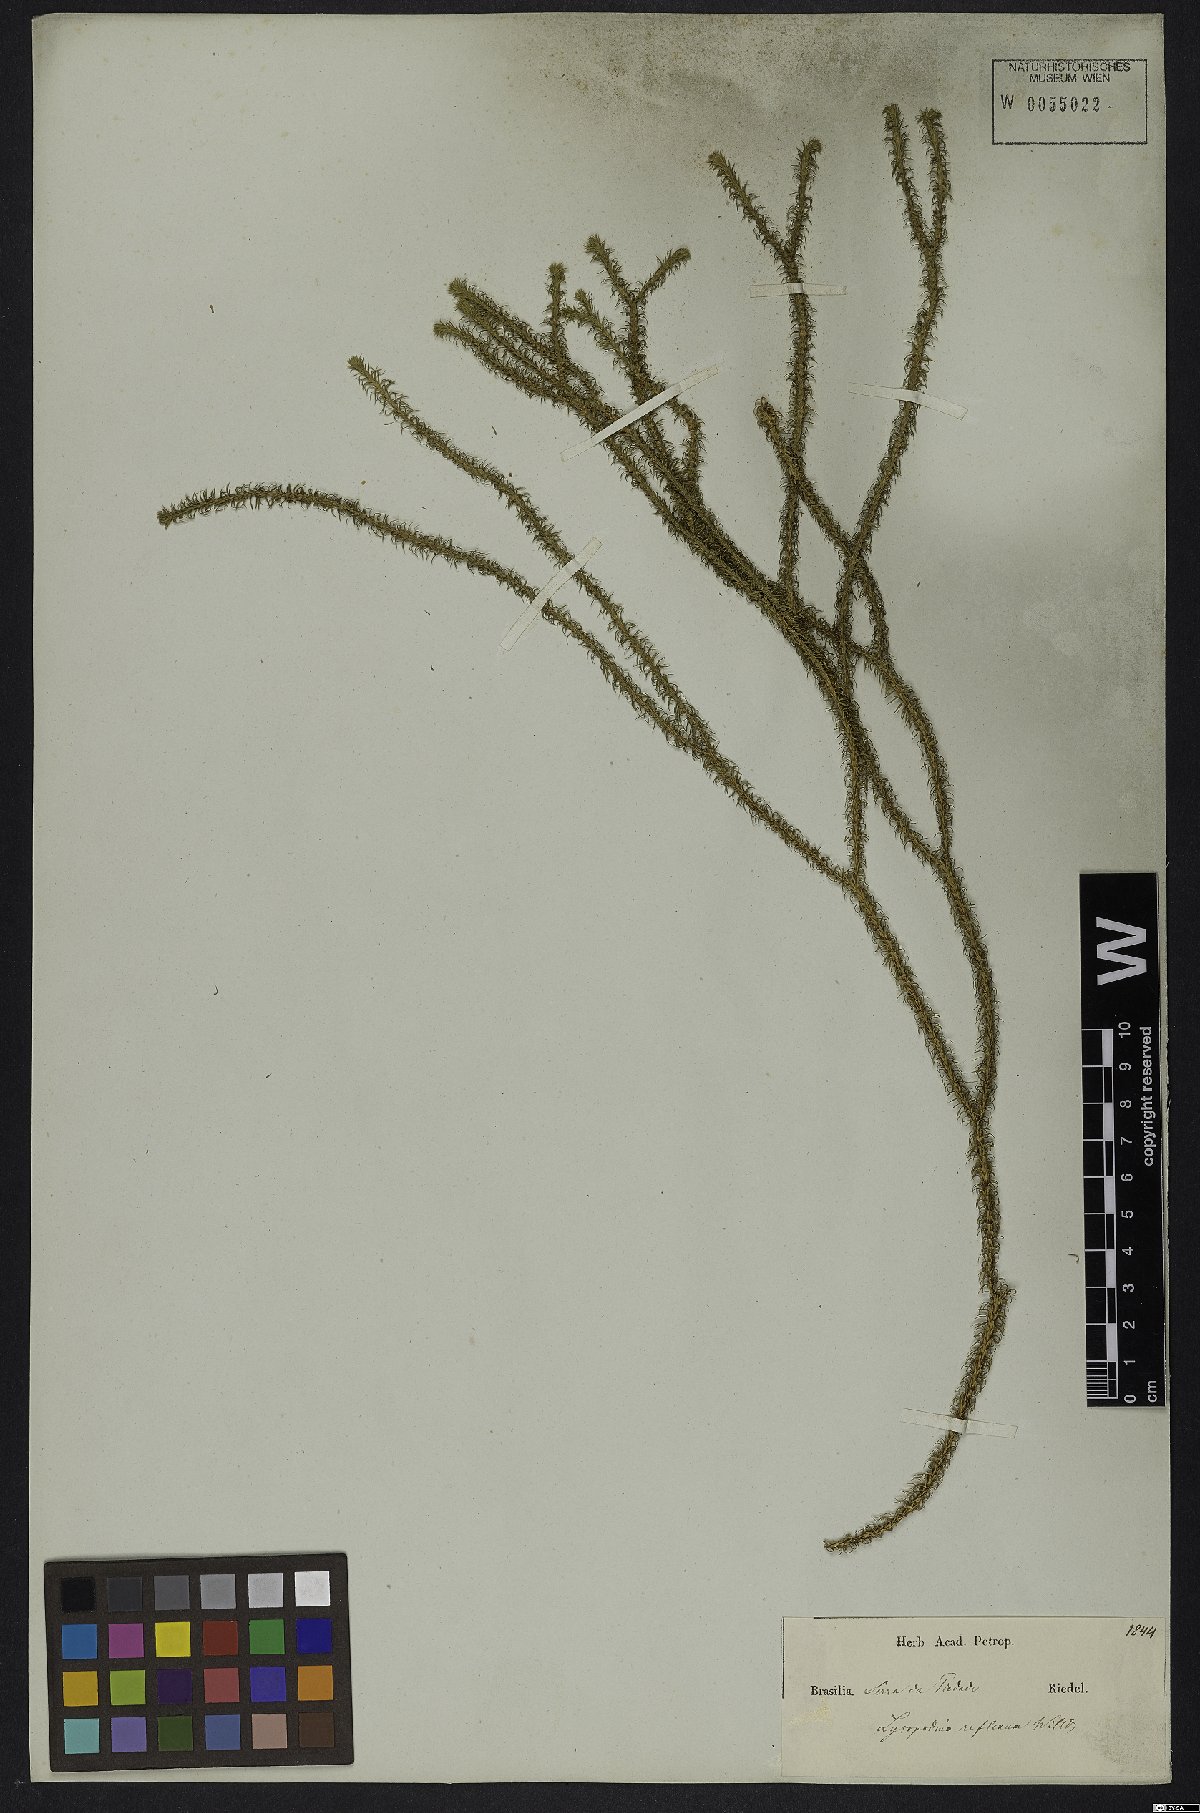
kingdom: Plantae
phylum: Tracheophyta
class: Lycopodiopsida
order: Lycopodiales
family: Lycopodiaceae
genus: Phlegmariurus
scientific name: Phlegmariurus reflexus
